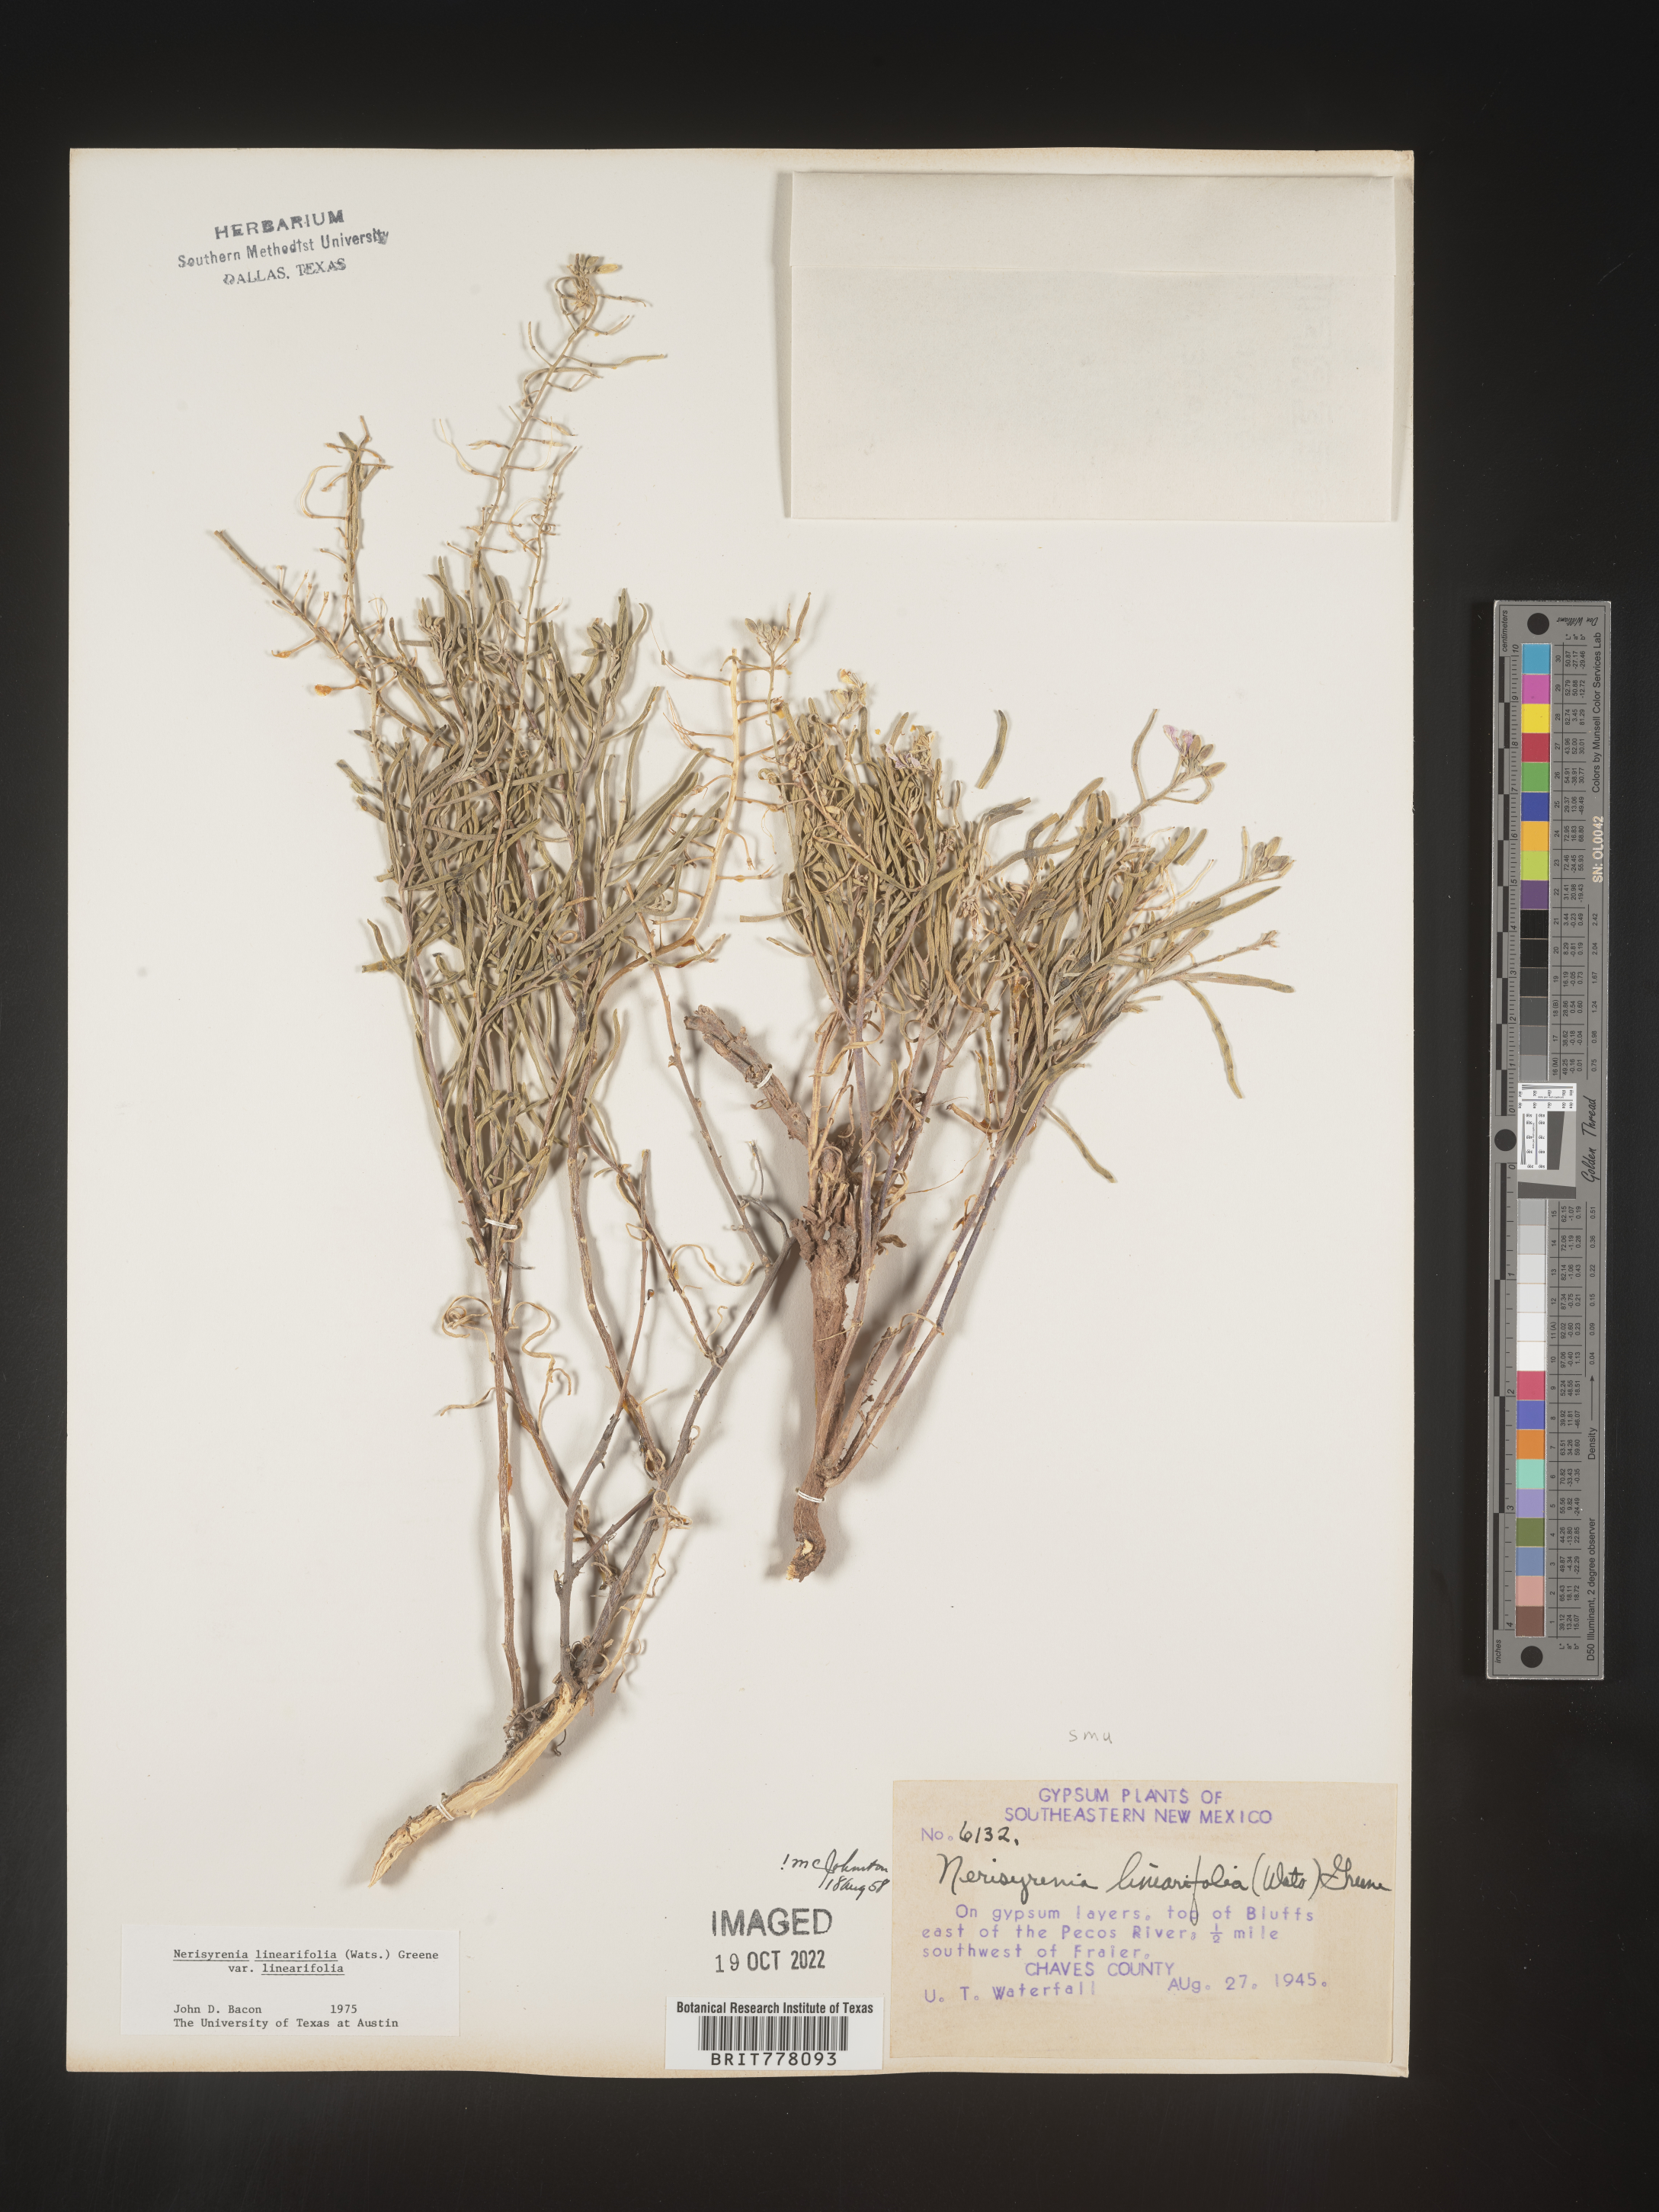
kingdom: Plantae
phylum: Tracheophyta
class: Magnoliopsida
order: Brassicales
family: Brassicaceae
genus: Nerisyrenia
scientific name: Nerisyrenia
